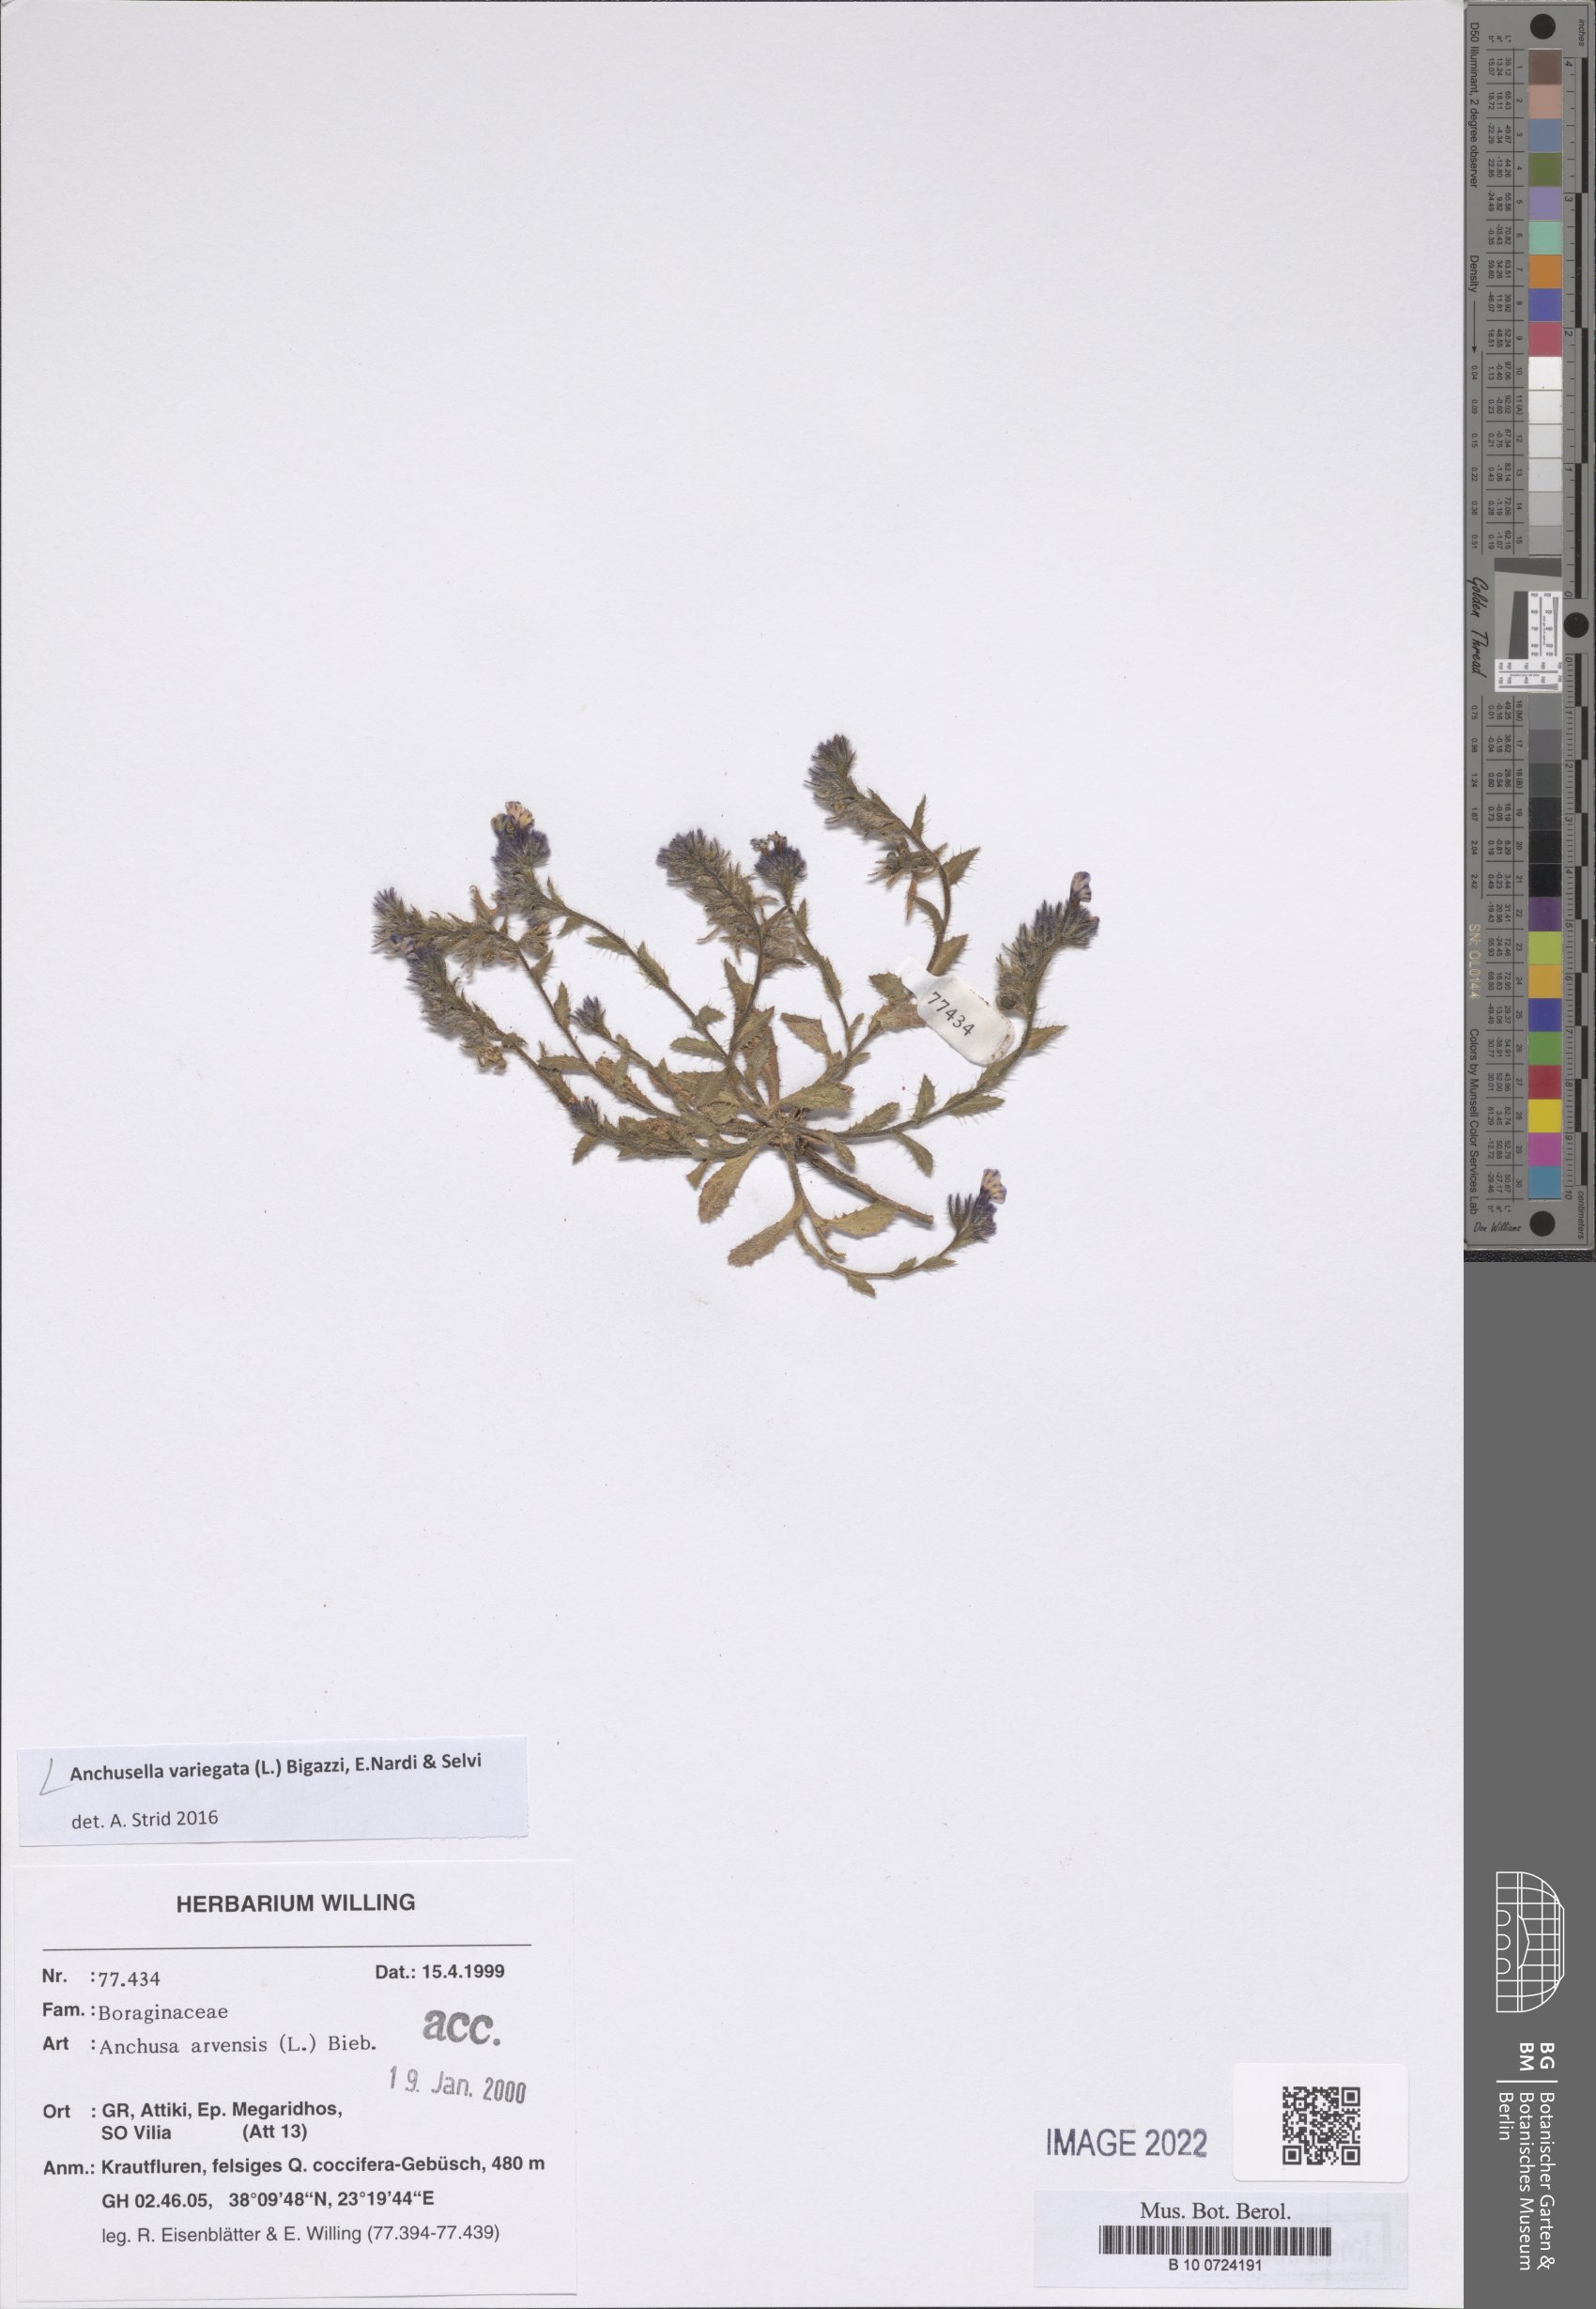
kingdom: Plantae
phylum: Tracheophyta
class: Magnoliopsida
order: Boraginales
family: Boraginaceae
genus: Anchusella
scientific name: Anchusella variegata
